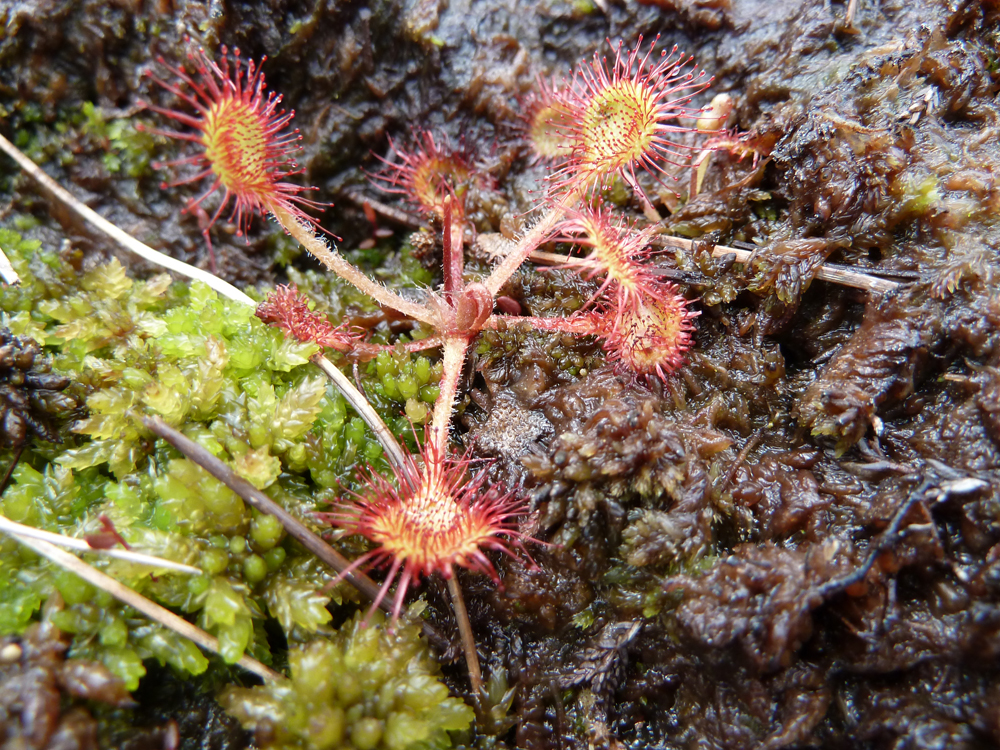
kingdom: Plantae
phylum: Tracheophyta
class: Magnoliopsida
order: Caryophyllales
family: Droseraceae
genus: Drosera
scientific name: Drosera rotundifolia
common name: Round-leaved sundew
